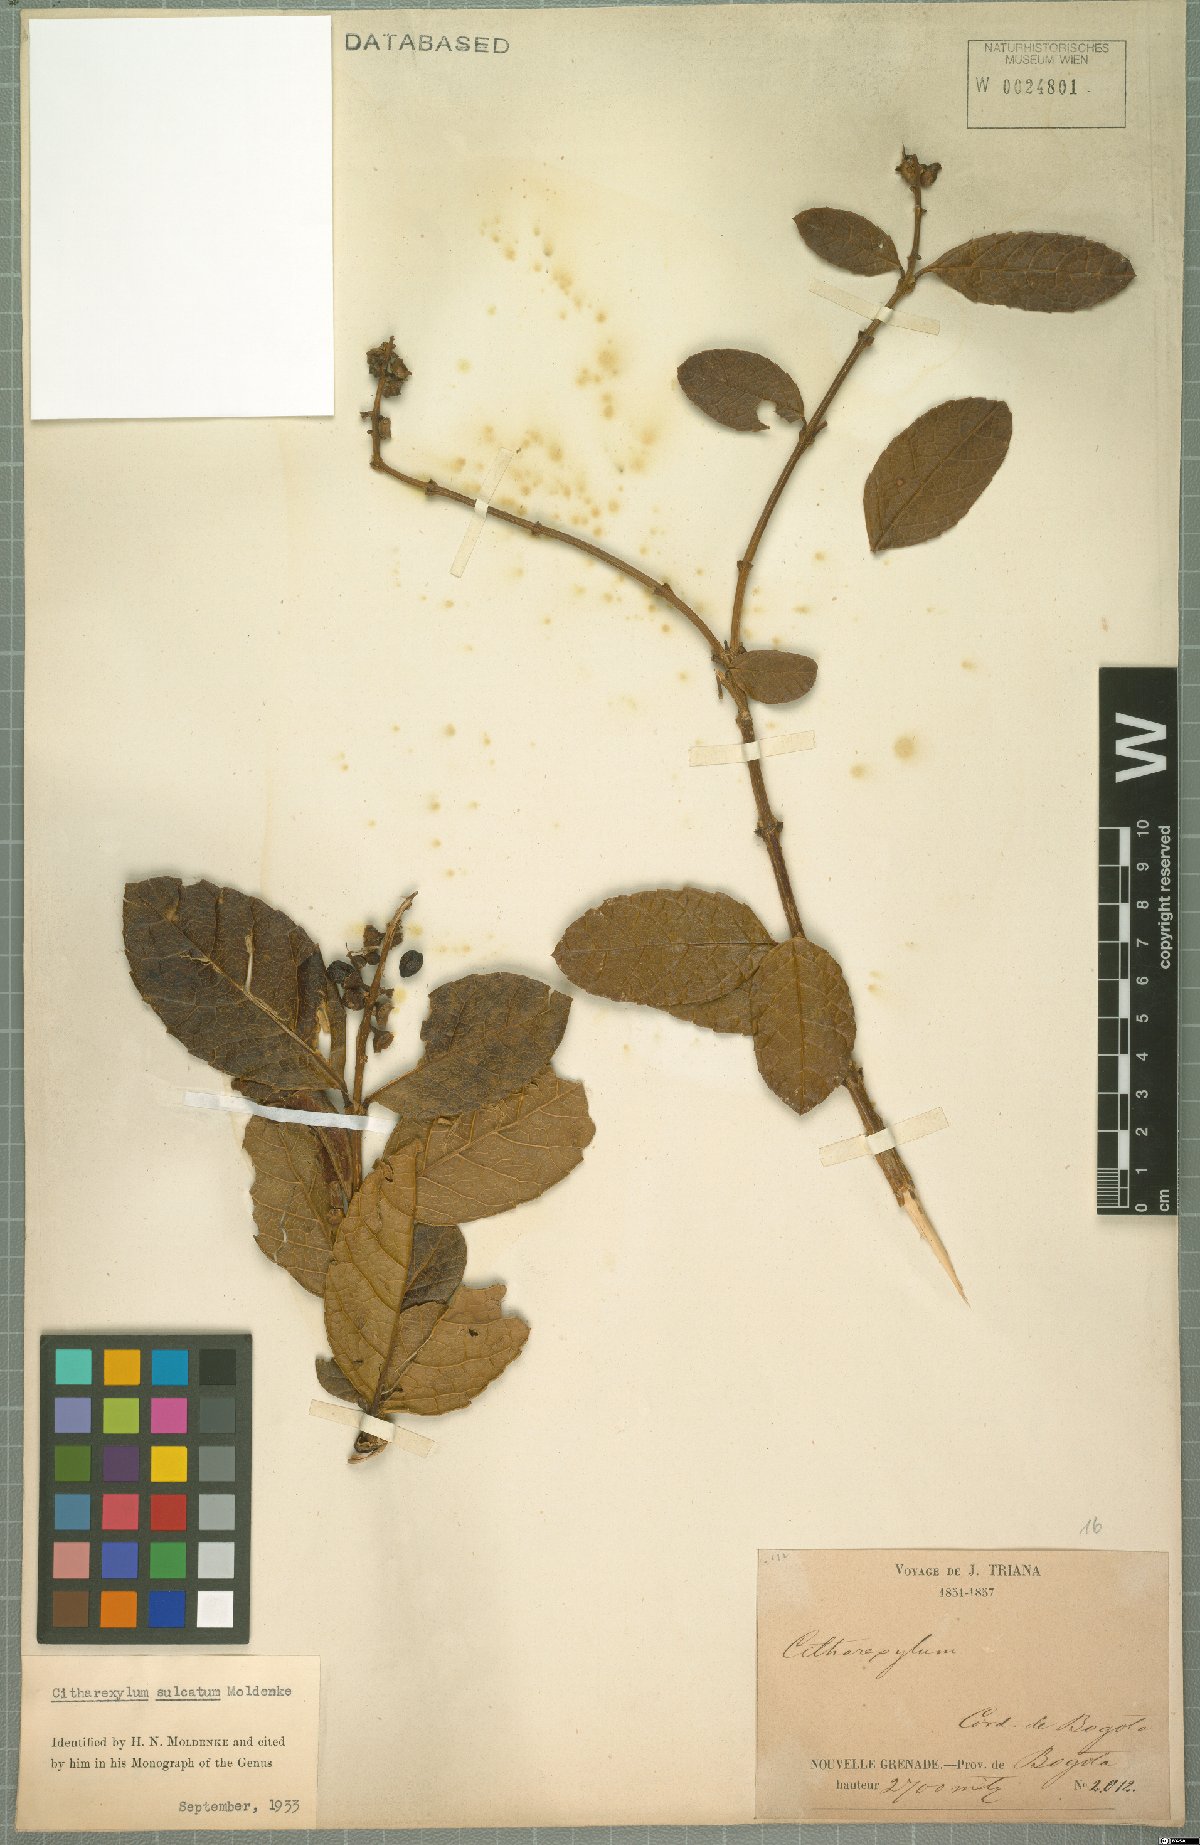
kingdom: Plantae
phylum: Tracheophyta
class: Magnoliopsida
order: Lamiales
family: Verbenaceae
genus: Citharexylum
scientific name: Citharexylum reticulatum
